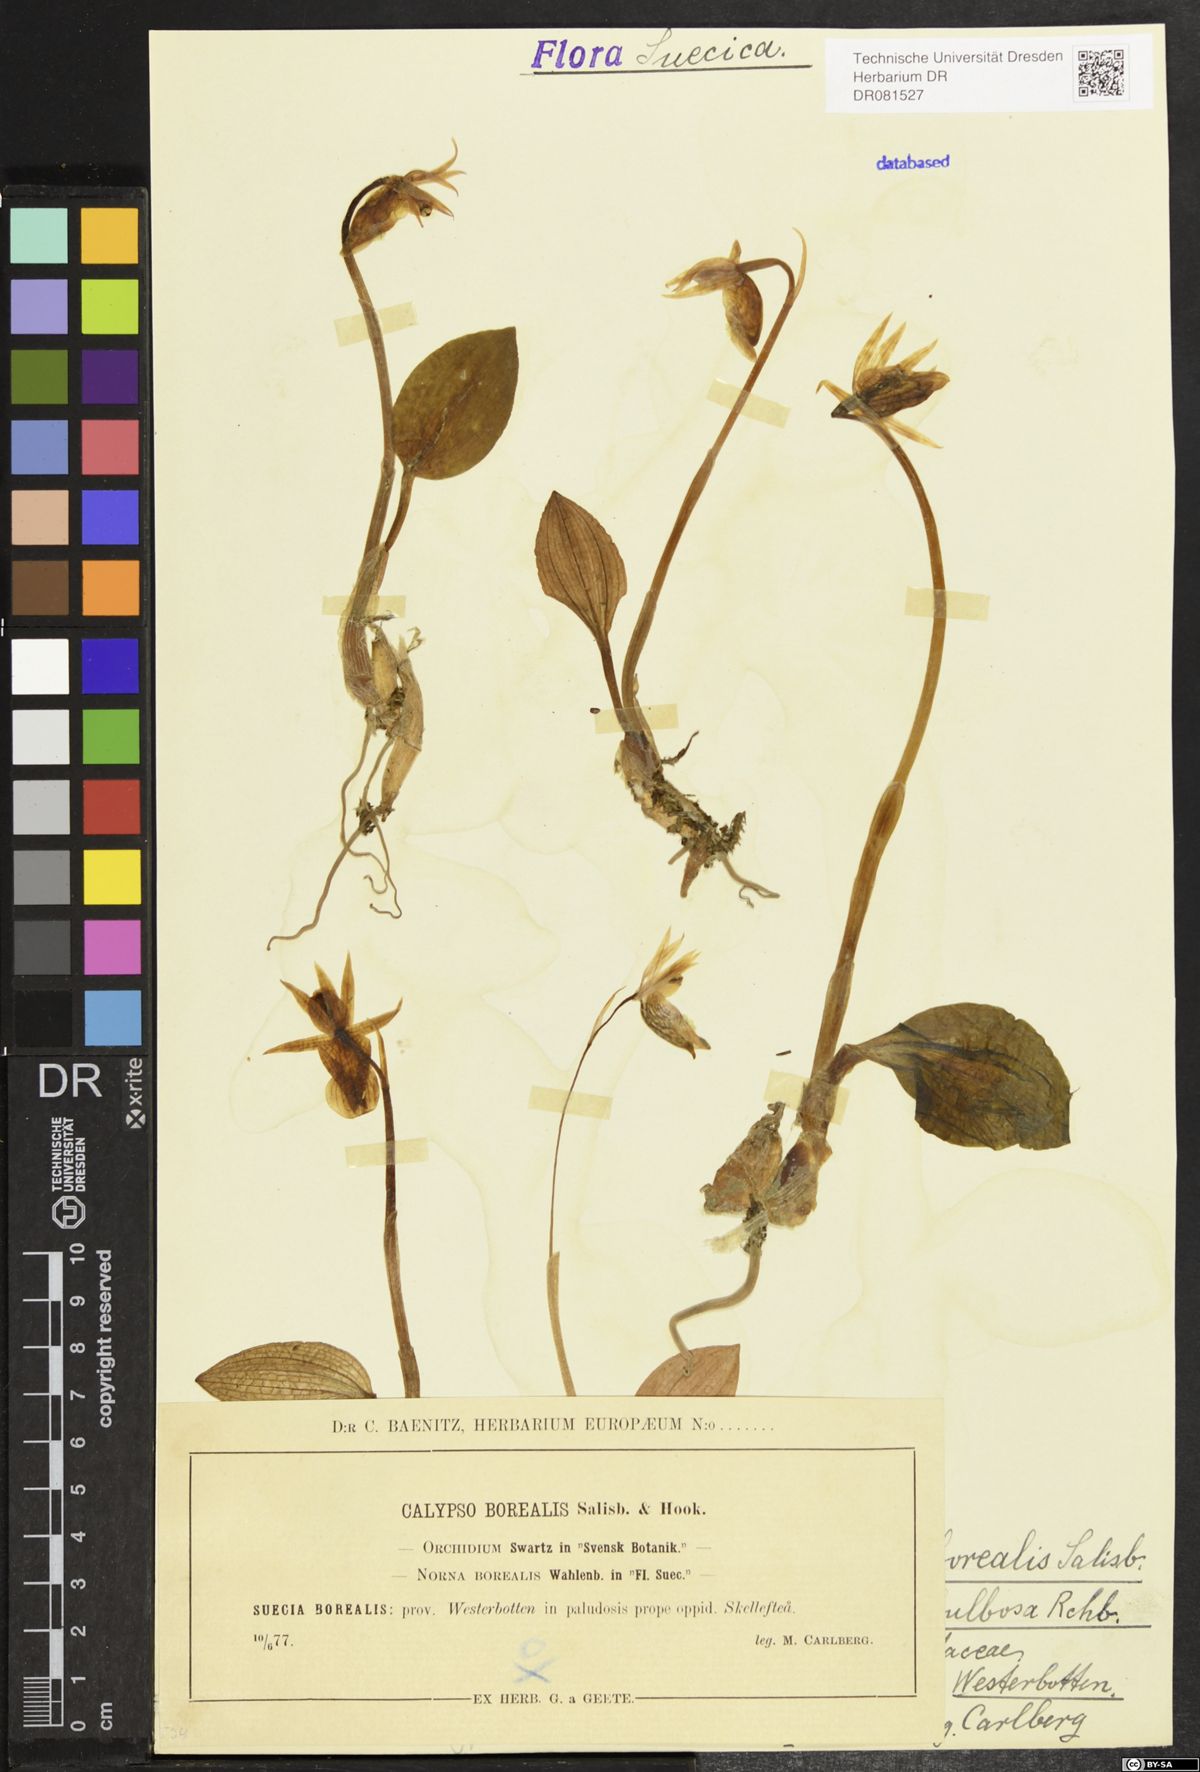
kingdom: Plantae
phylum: Tracheophyta
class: Liliopsida
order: Asparagales
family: Orchidaceae
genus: Calypso
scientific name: Calypso bulbosa
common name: Calypso
